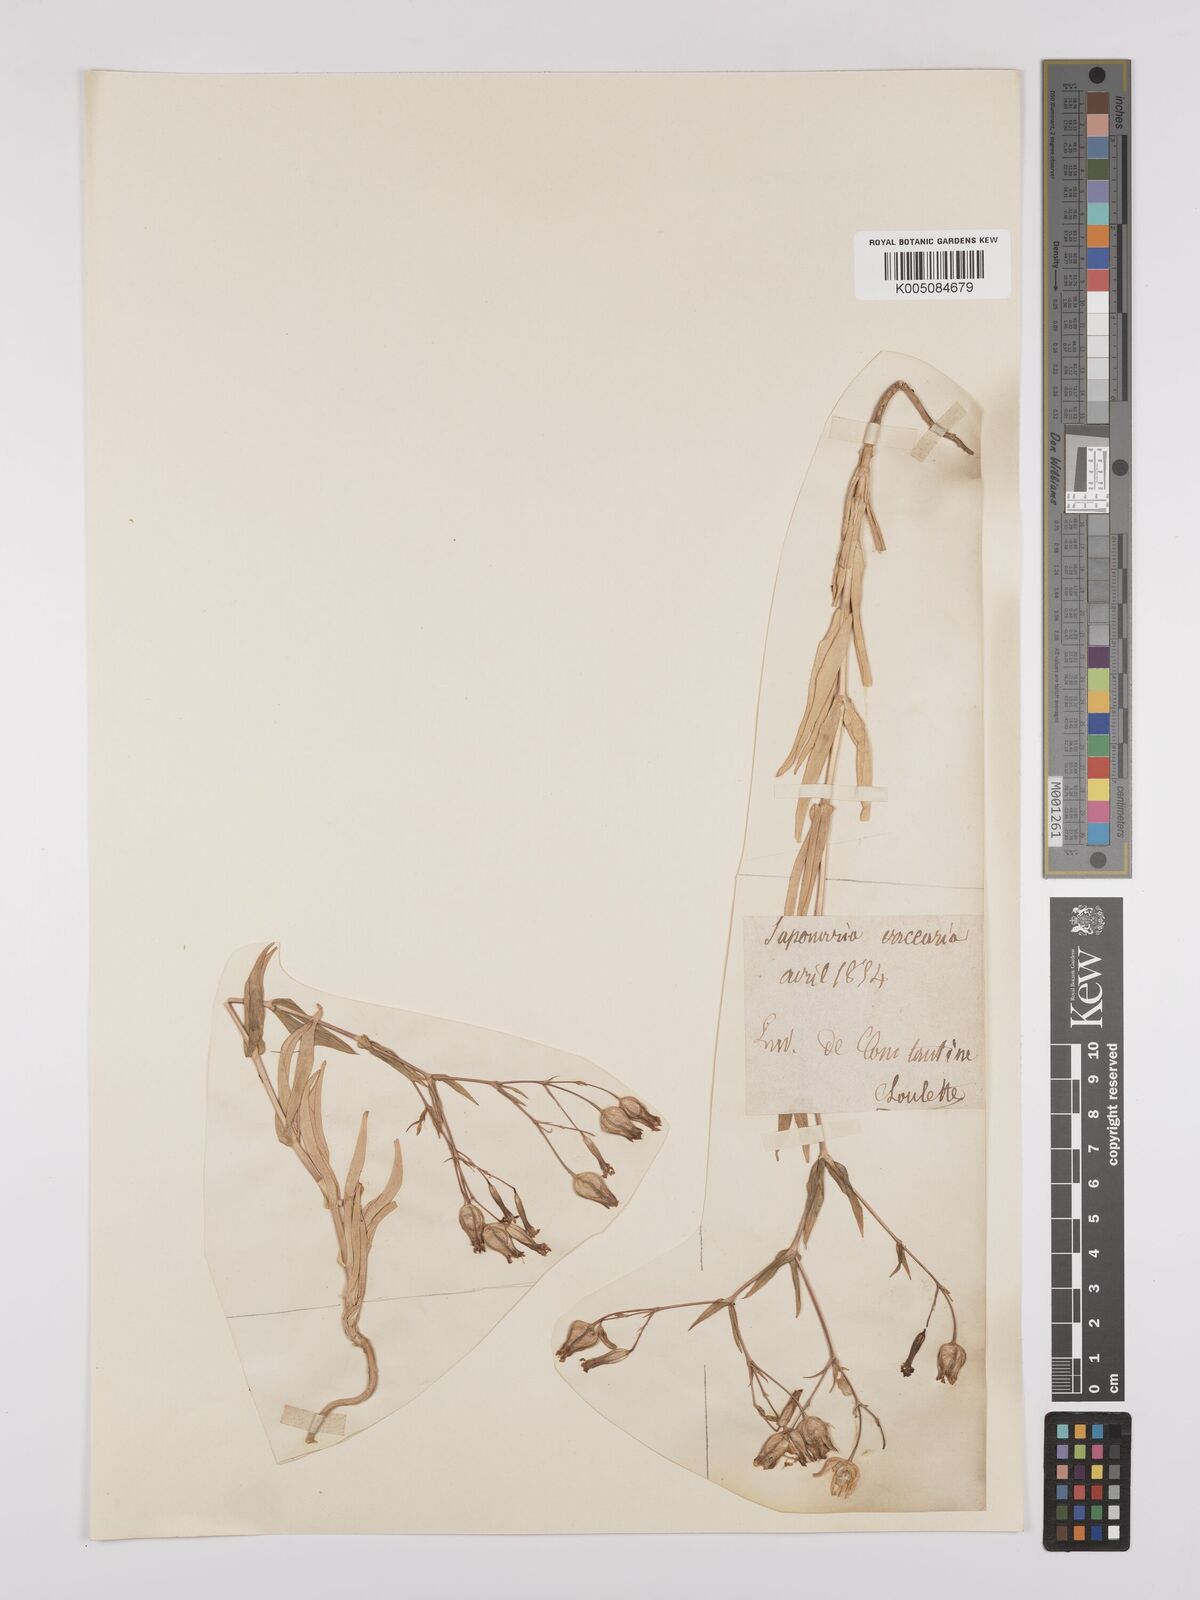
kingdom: Plantae
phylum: Tracheophyta
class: Magnoliopsida
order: Caryophyllales
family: Caryophyllaceae
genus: Gypsophila
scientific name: Gypsophila vaccaria
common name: Cow soapwort
